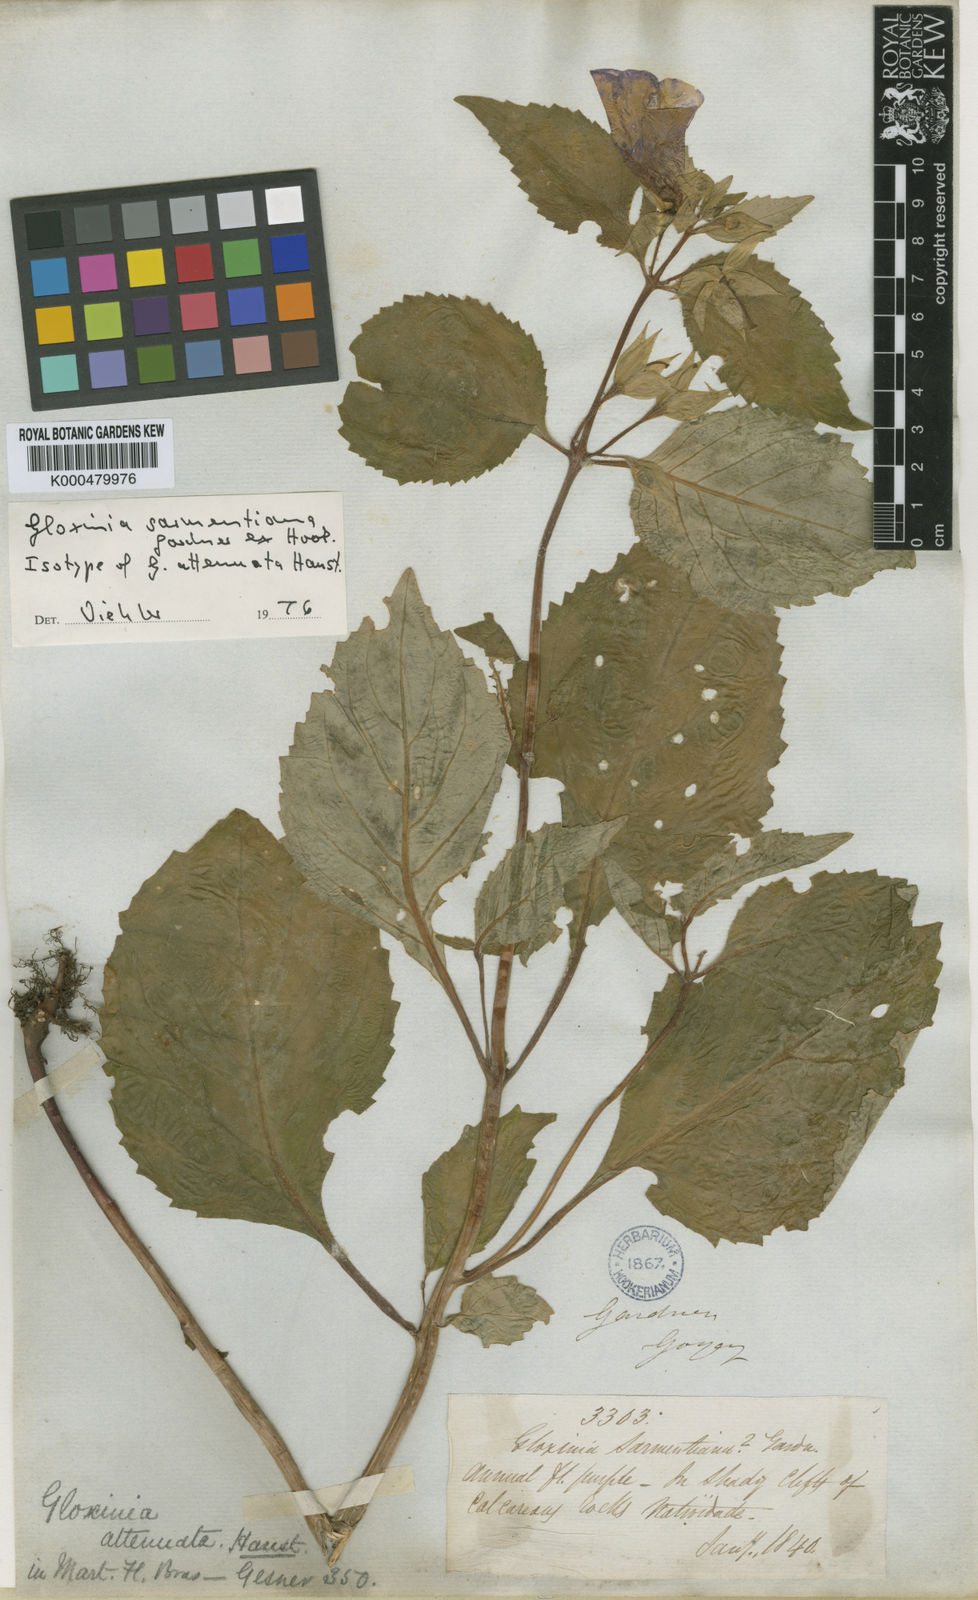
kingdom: Plantae
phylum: Tracheophyta
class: Magnoliopsida
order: Lamiales
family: Gesneriaceae
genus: Sphaerorrhiza
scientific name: Sphaerorrhiza sarmentiana
